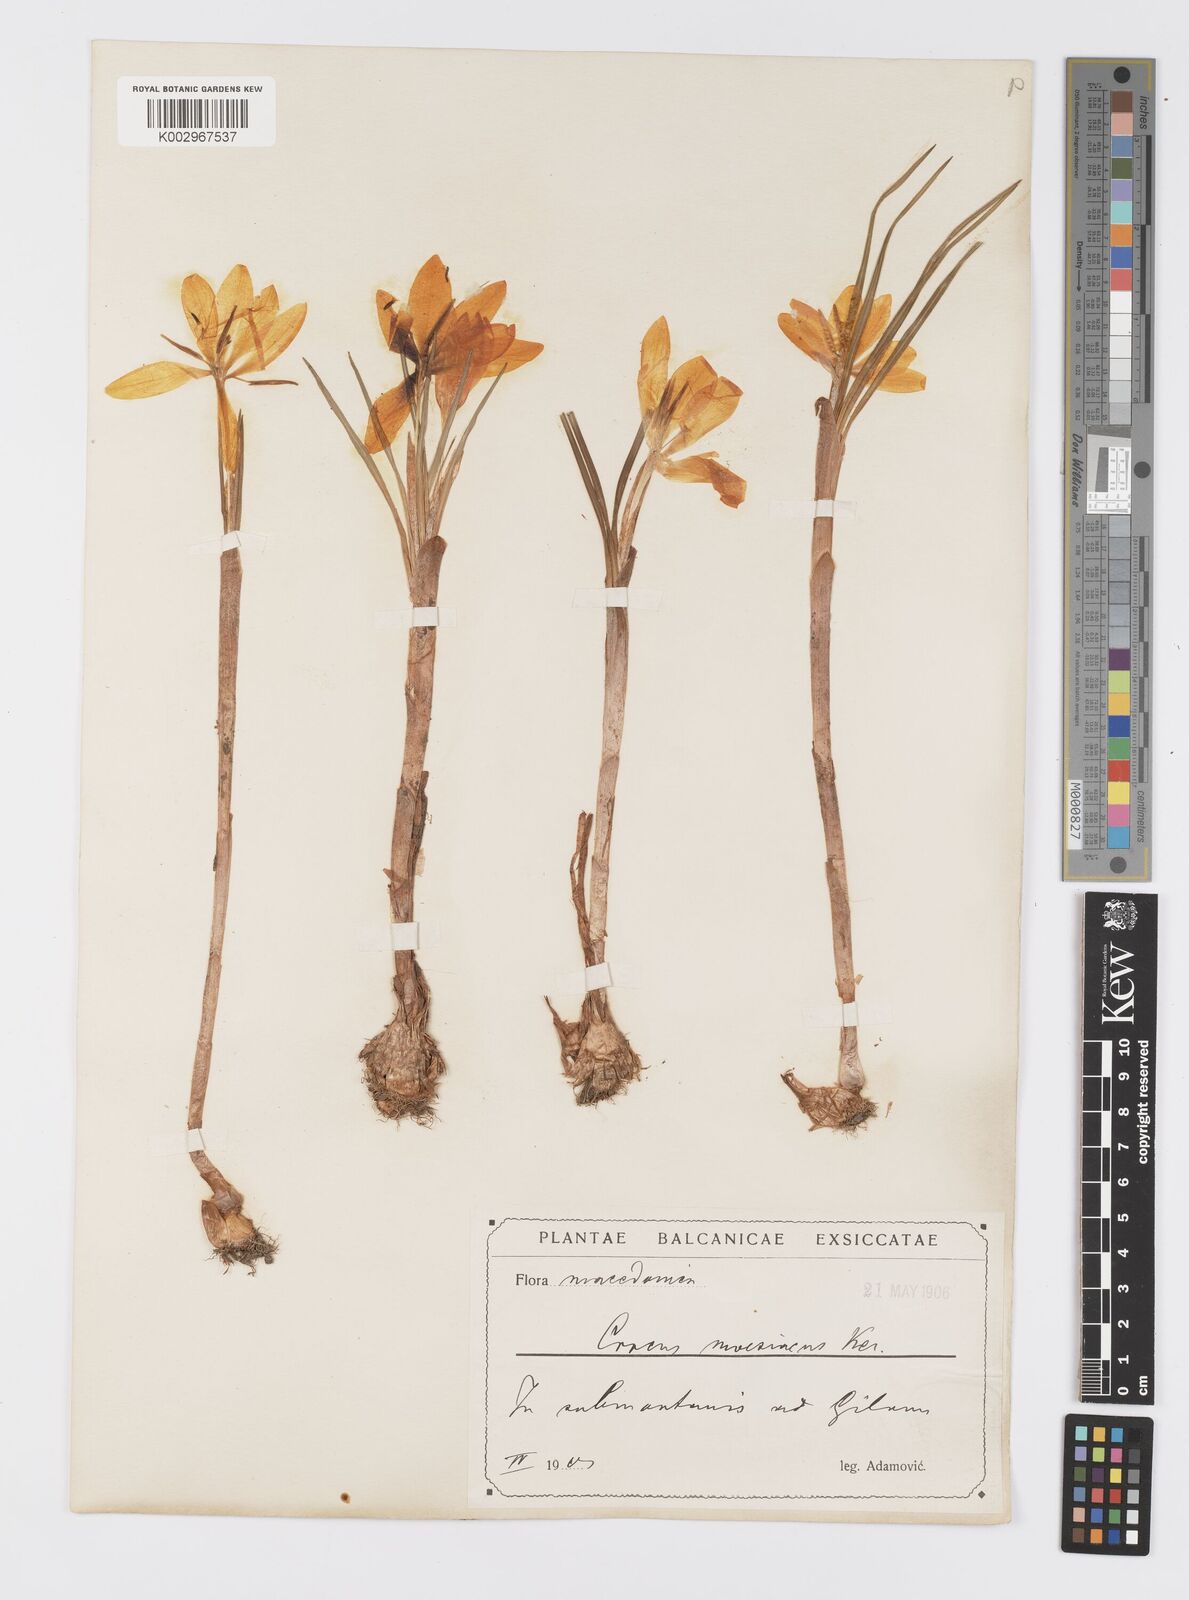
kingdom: Plantae
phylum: Tracheophyta
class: Liliopsida
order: Asparagales
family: Iridaceae
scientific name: Iridaceae
